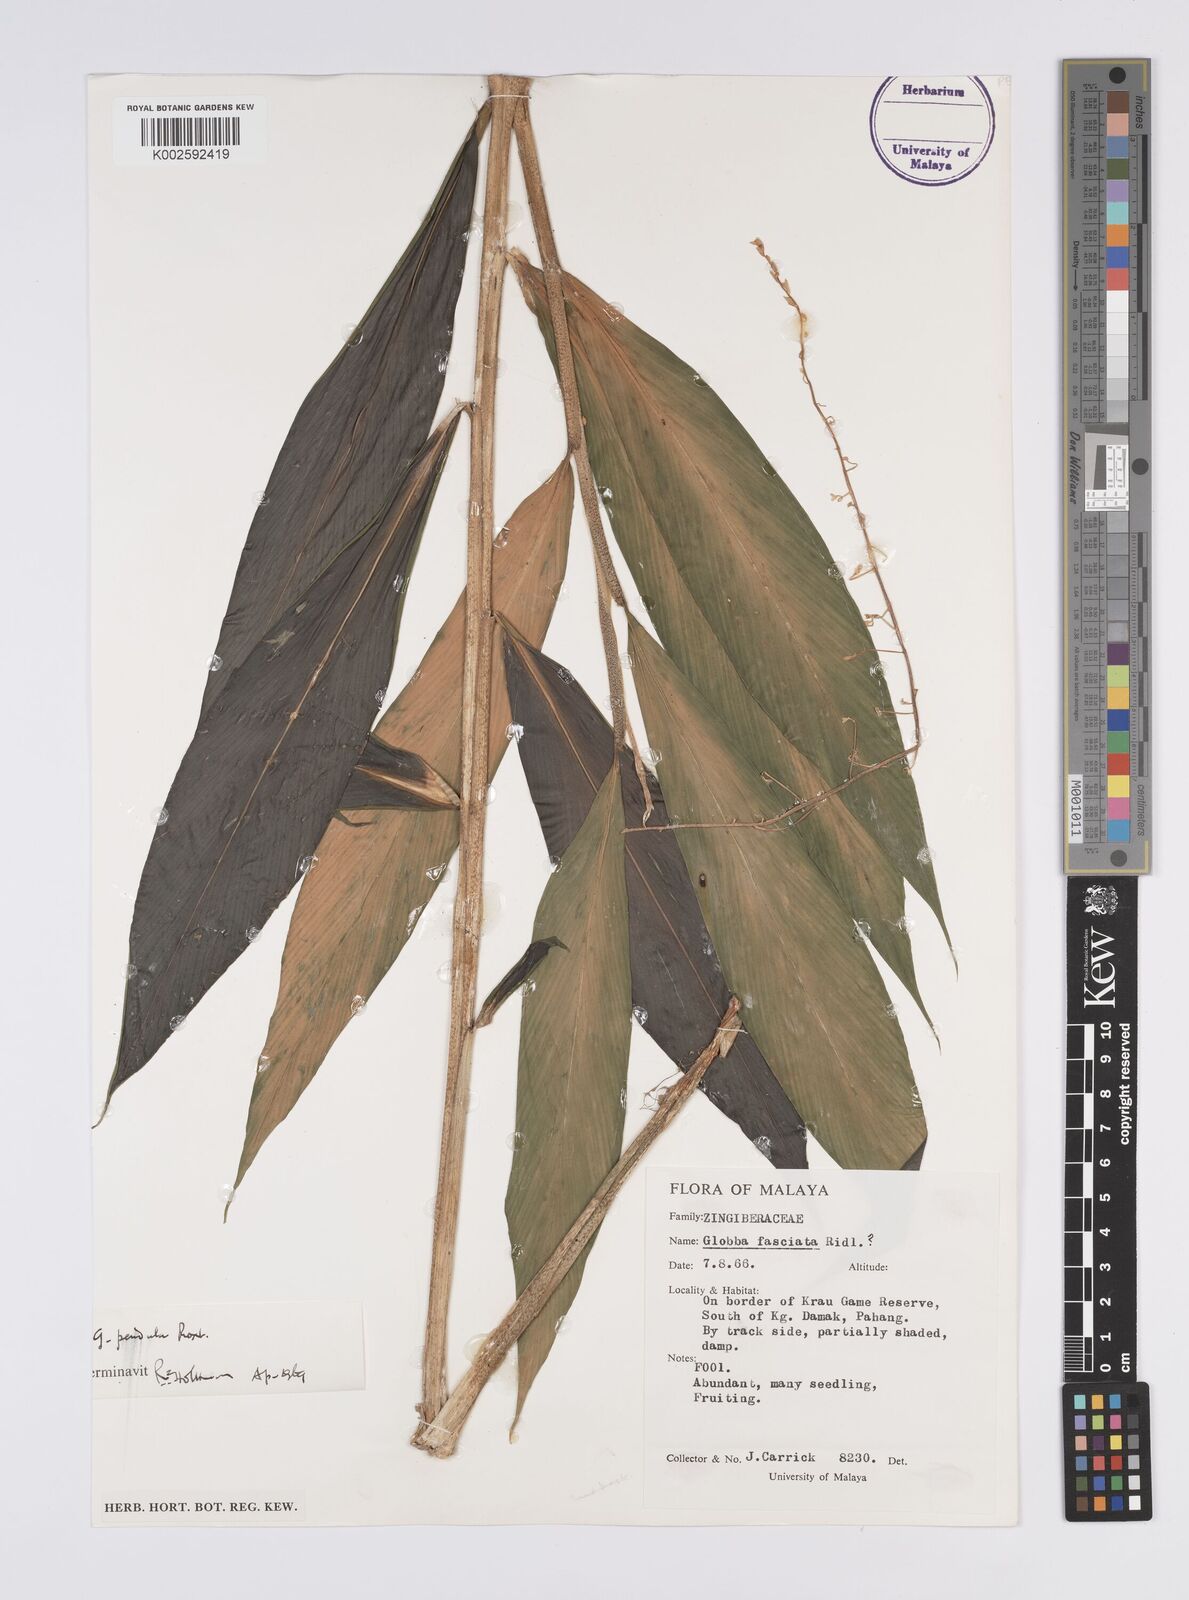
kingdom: Plantae
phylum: Tracheophyta
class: Liliopsida
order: Zingiberales
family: Zingiberaceae
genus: Globba
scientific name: Globba pendula
